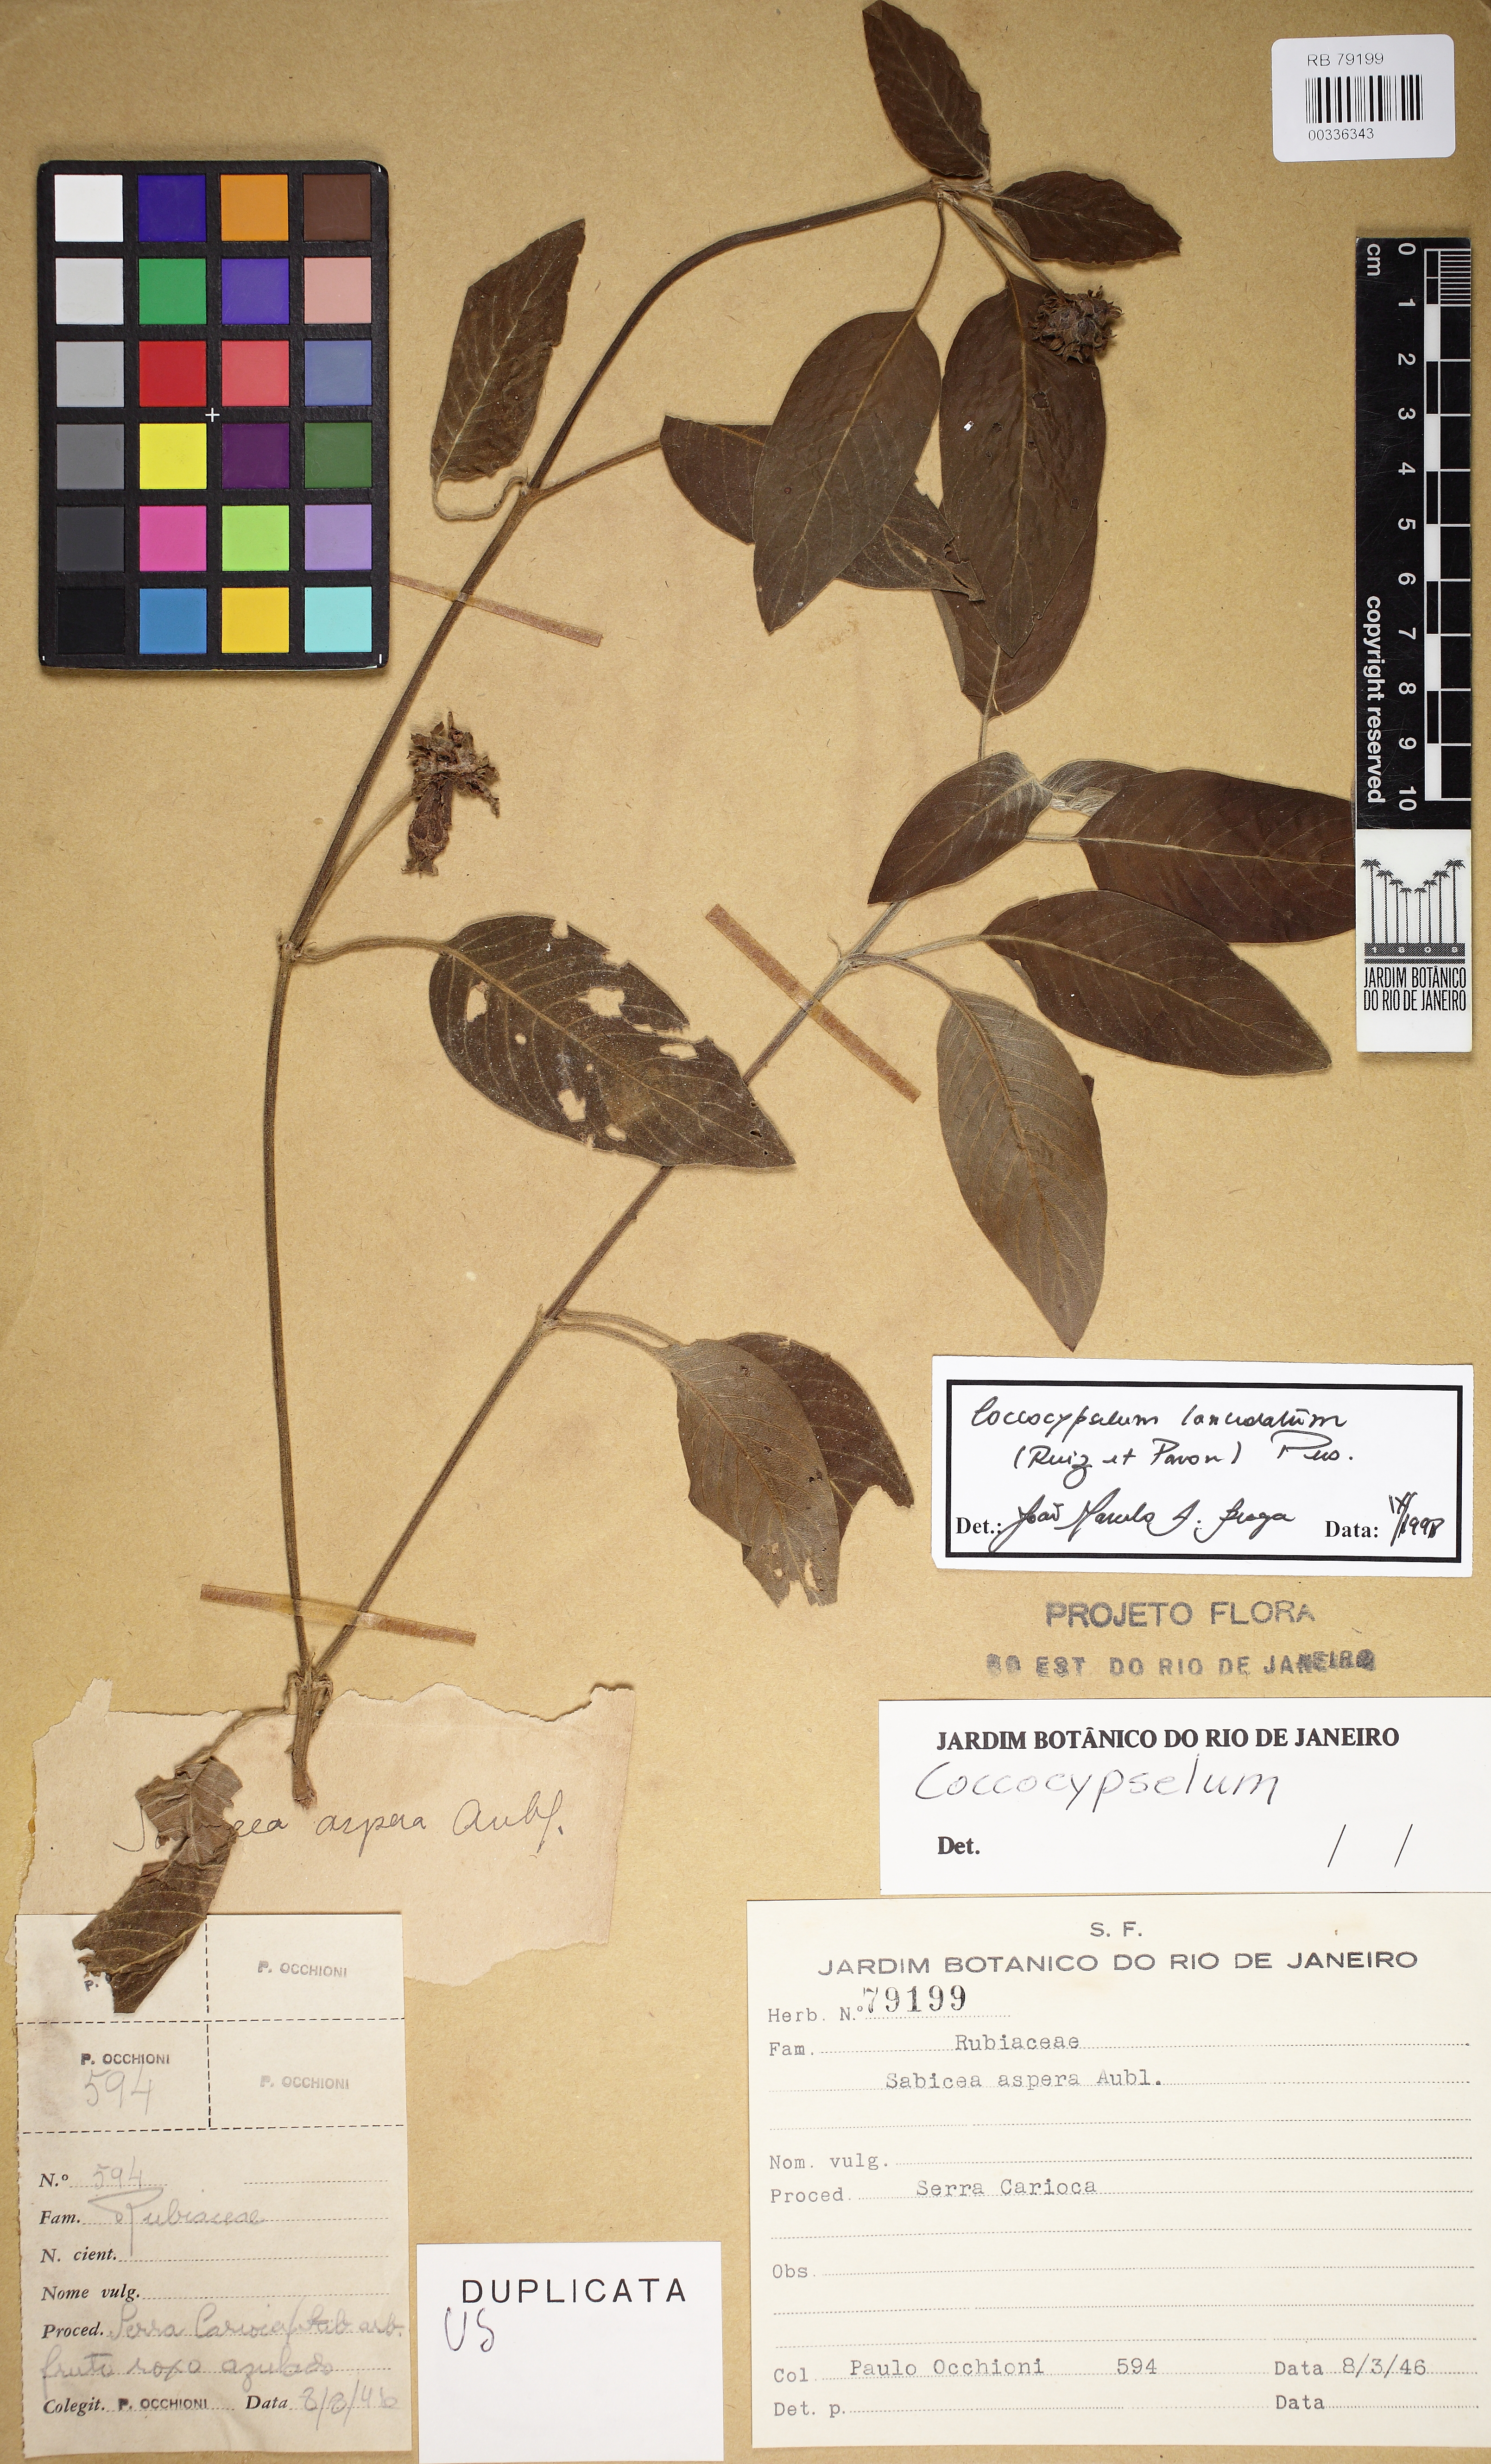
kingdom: Plantae
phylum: Tracheophyta
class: Magnoliopsida
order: Gentianales
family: Rubiaceae
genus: Coccocypselum
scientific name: Coccocypselum lanceolatum
